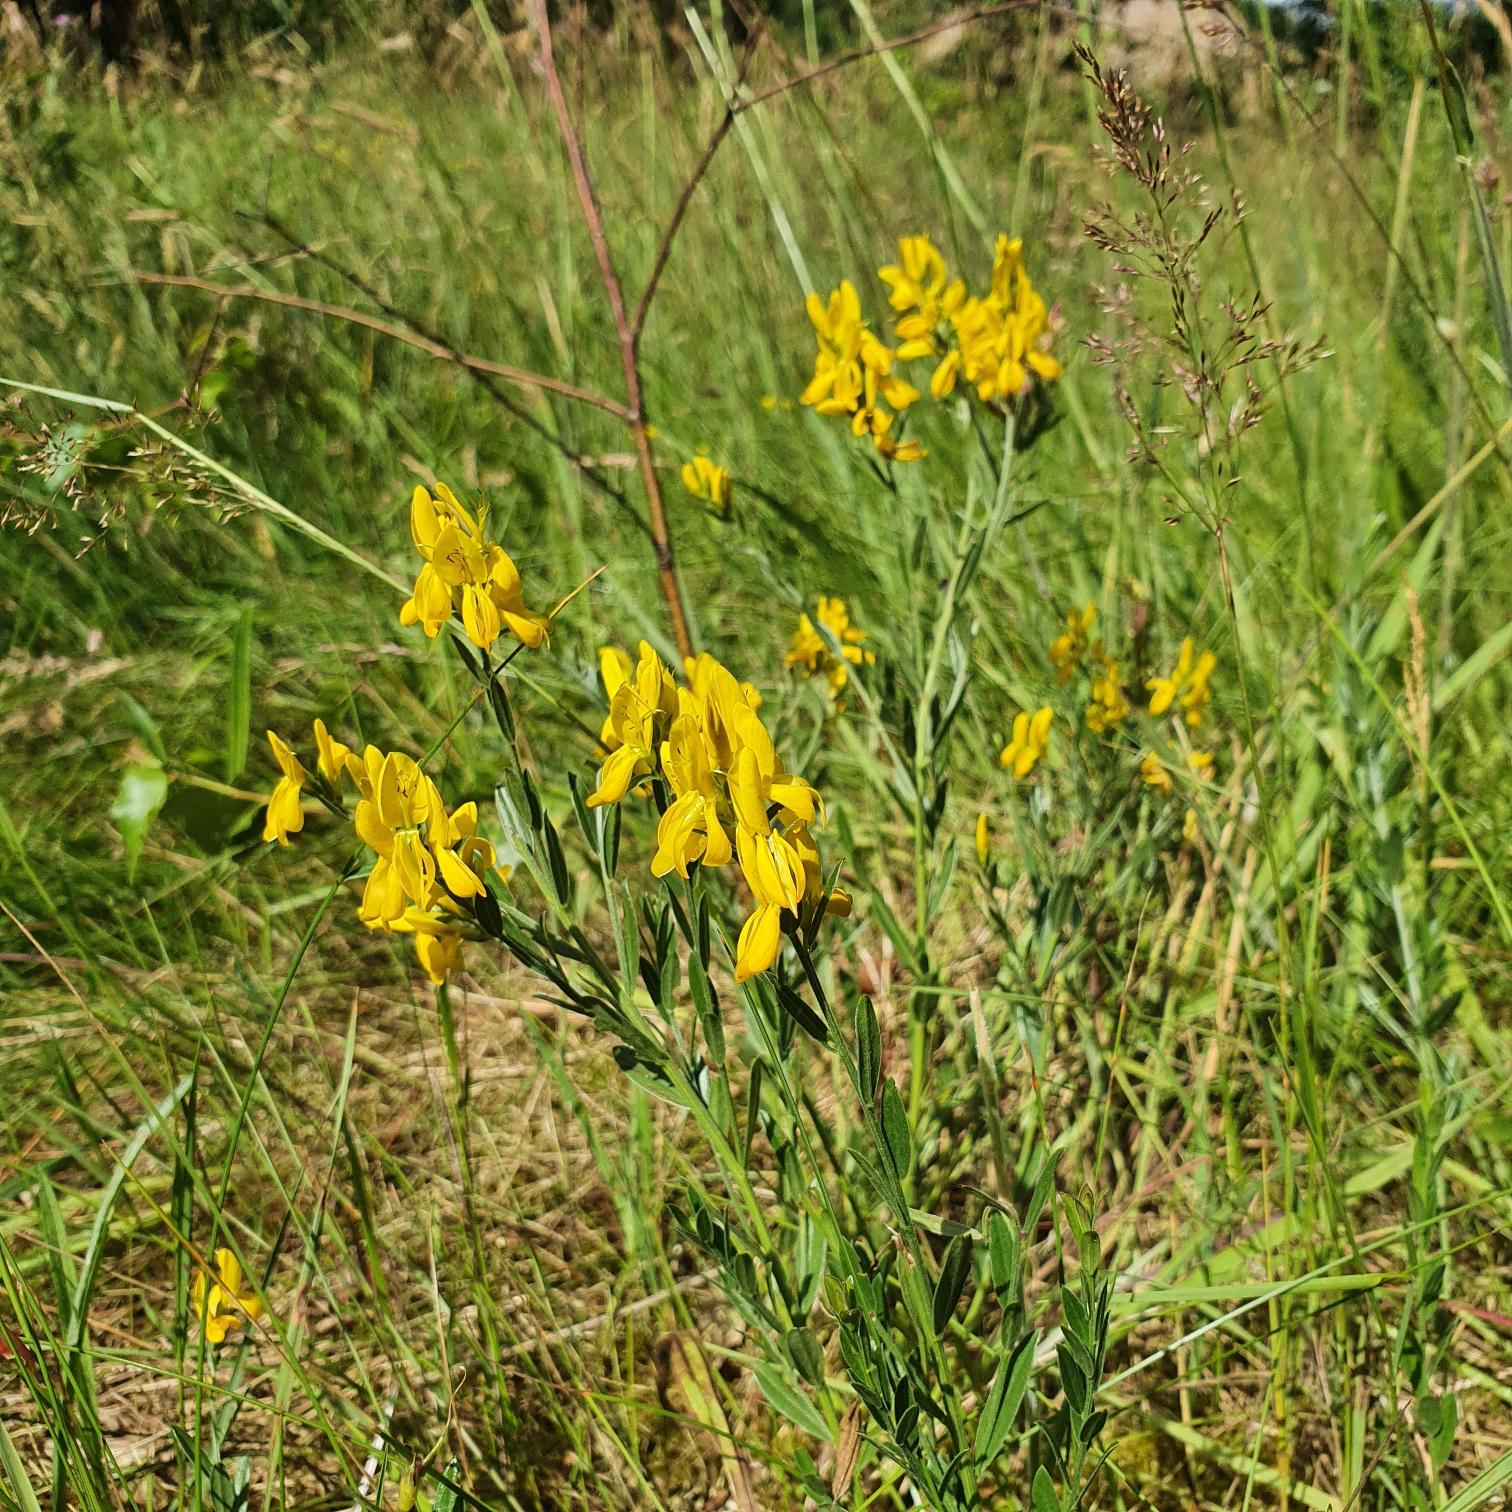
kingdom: Plantae
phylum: Tracheophyta
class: Magnoliopsida
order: Fabales
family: Fabaceae
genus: Genista
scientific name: Genista tinctoria
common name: Farve-visse
